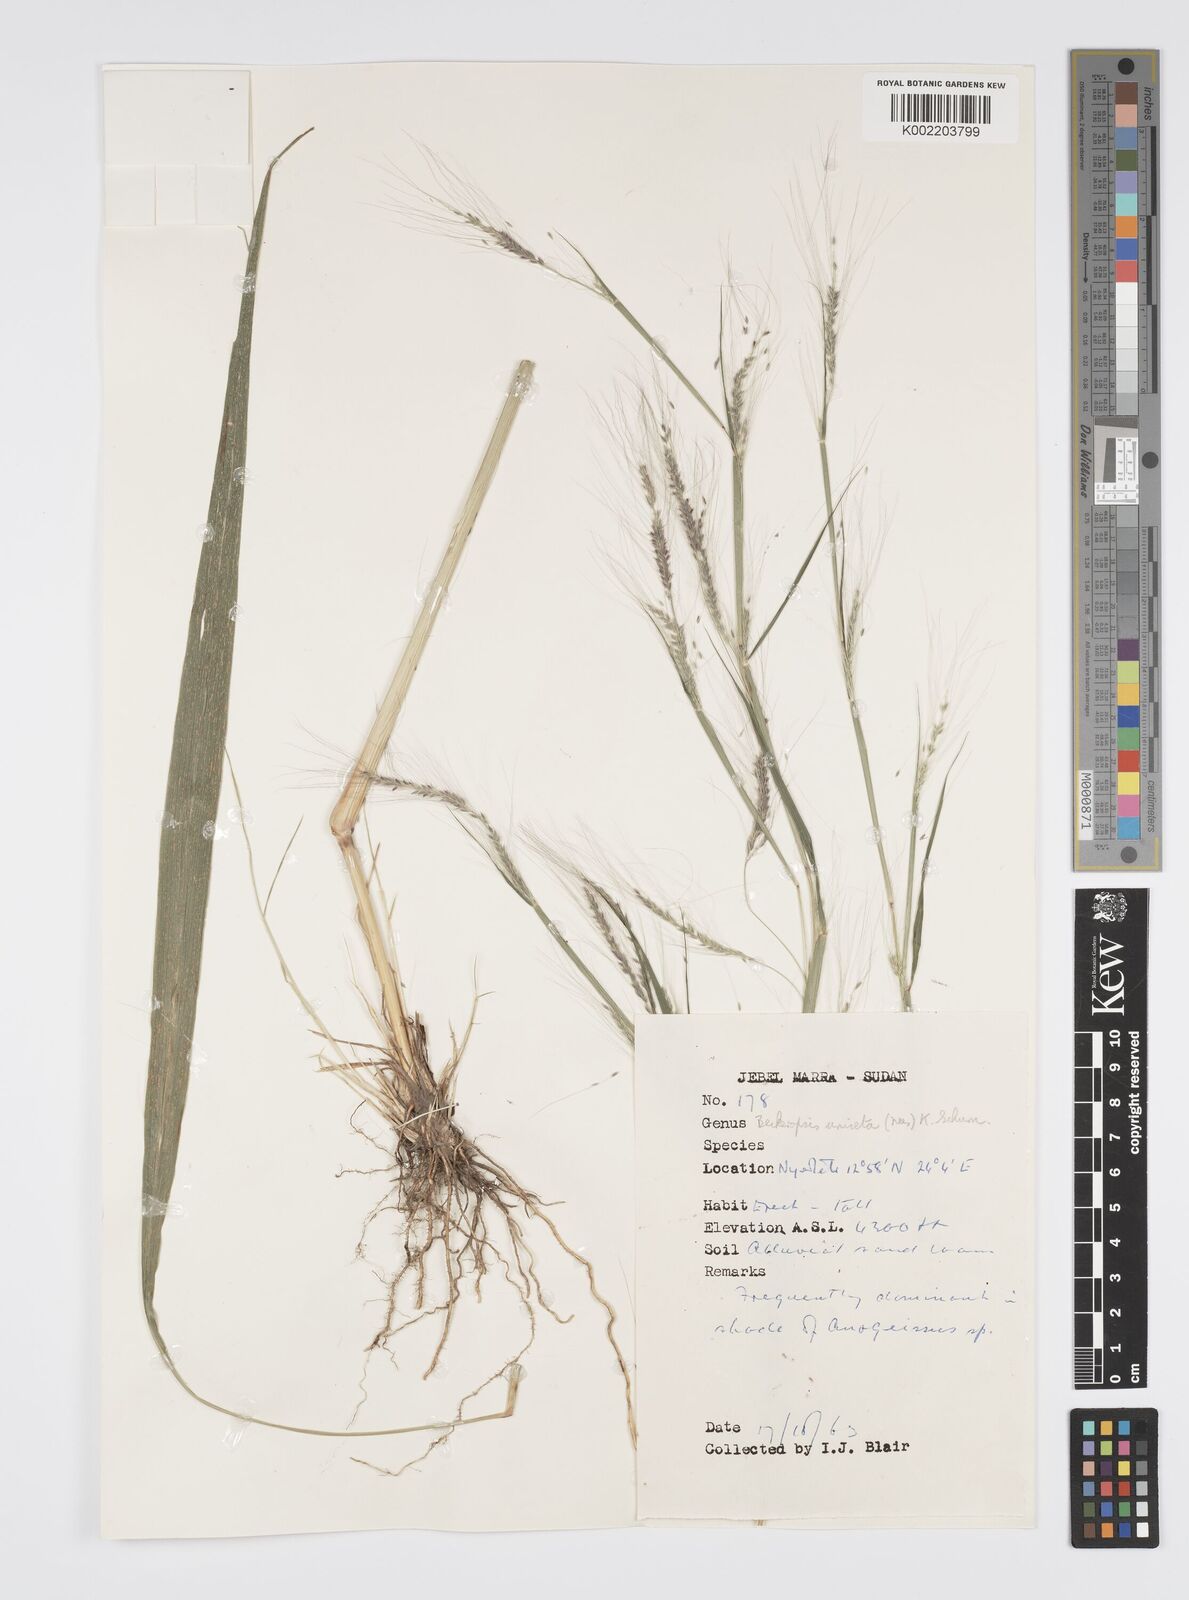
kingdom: Plantae
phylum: Tracheophyta
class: Liliopsida
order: Poales
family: Poaceae
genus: Cenchrus
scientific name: Cenchrus unisetus
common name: Natal grass
